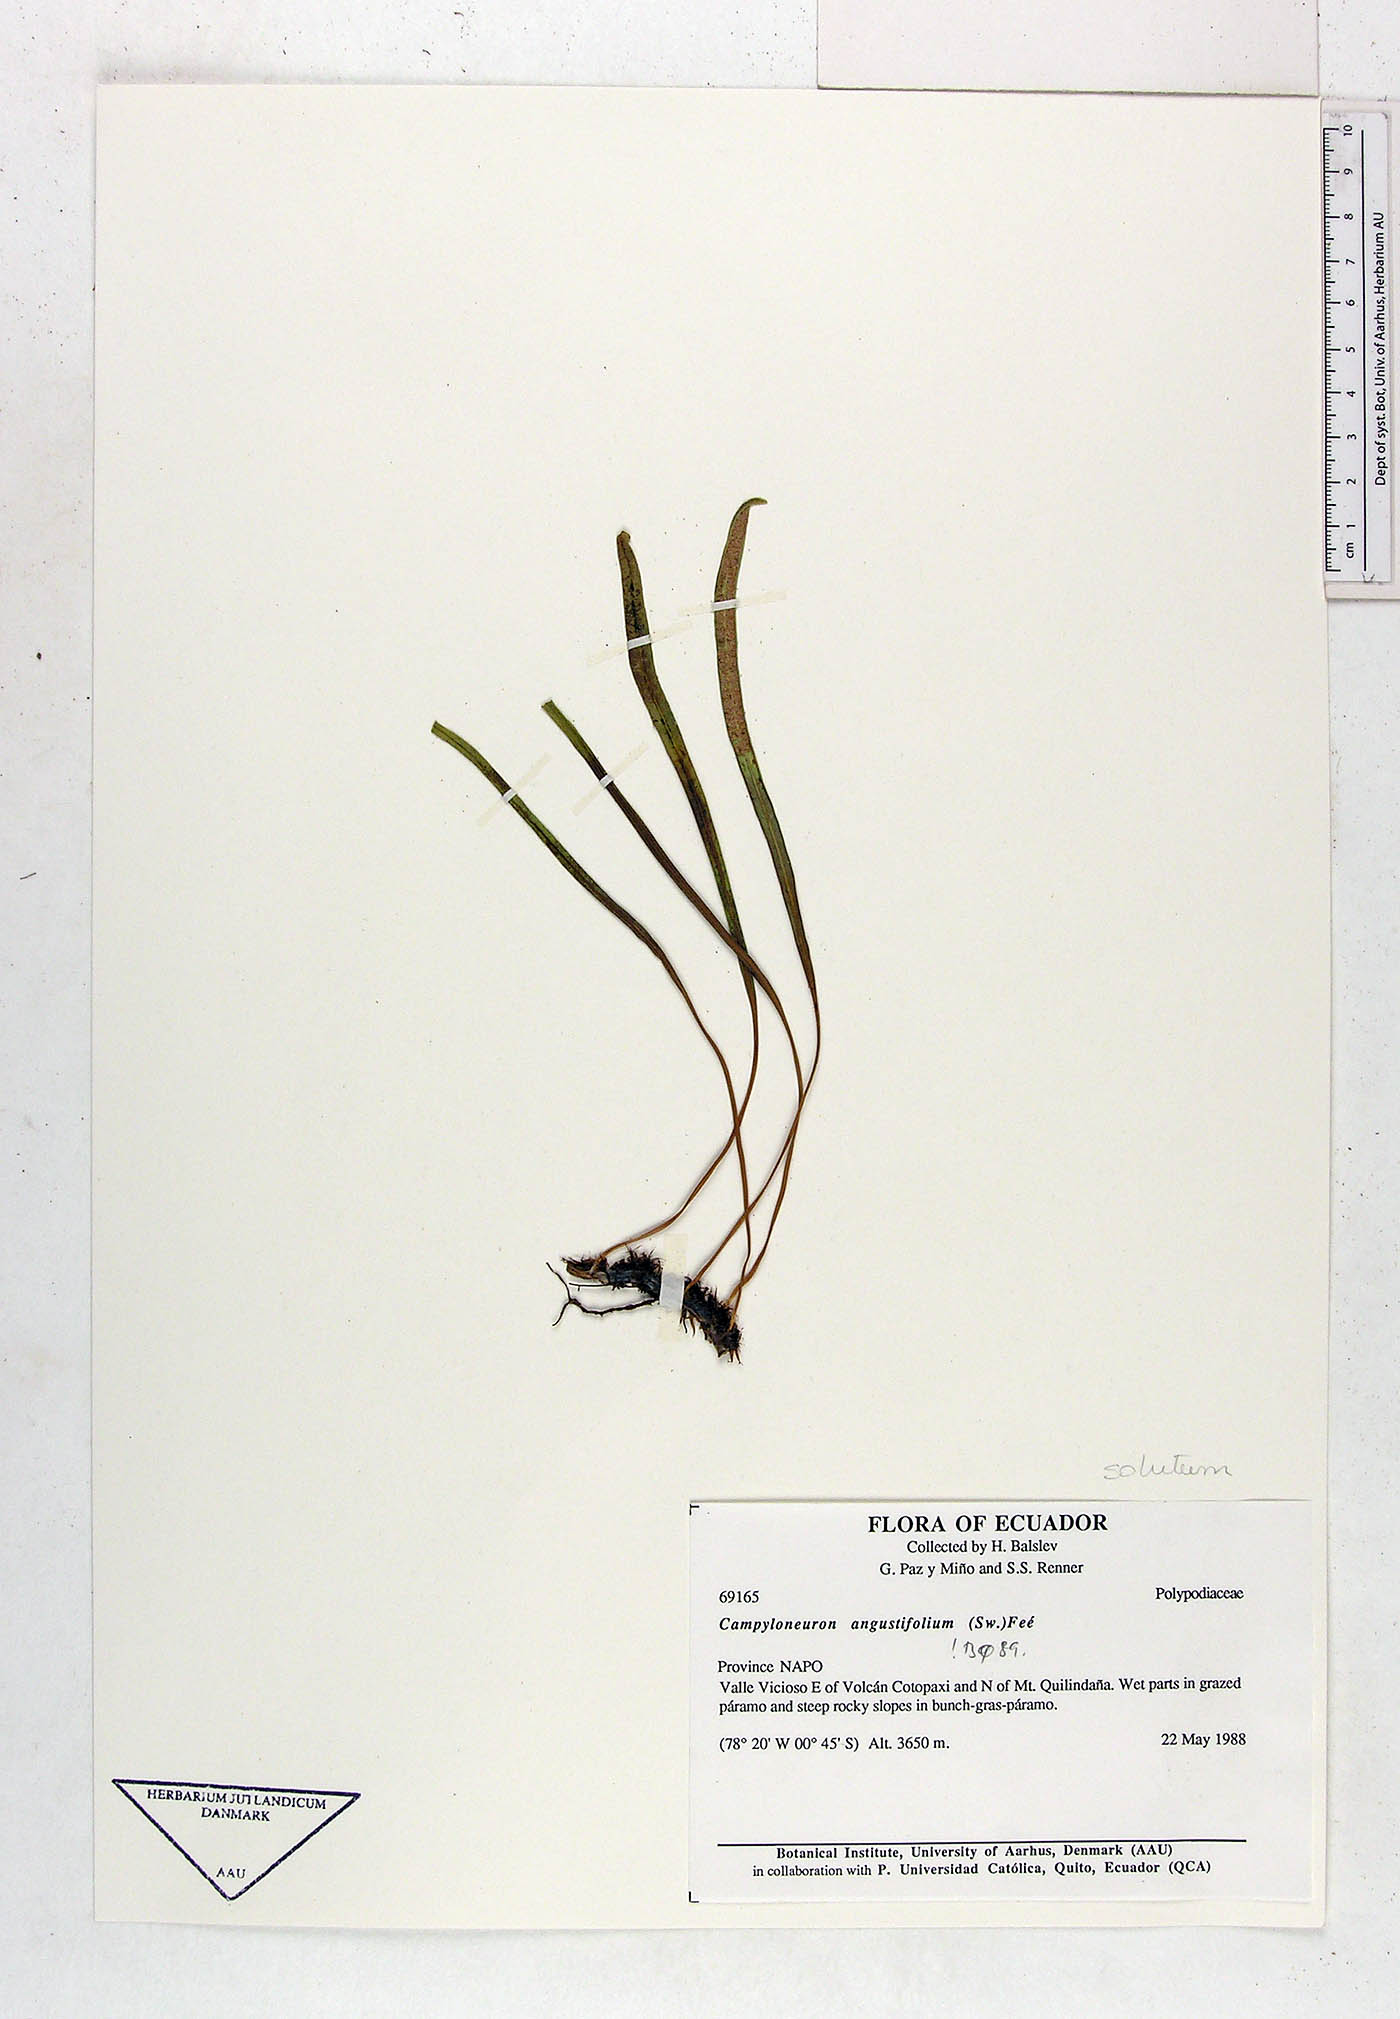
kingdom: Plantae
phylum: Tracheophyta
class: Polypodiopsida
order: Polypodiales
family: Polypodiaceae
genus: Campyloneurum
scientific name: Campyloneurum solutum
